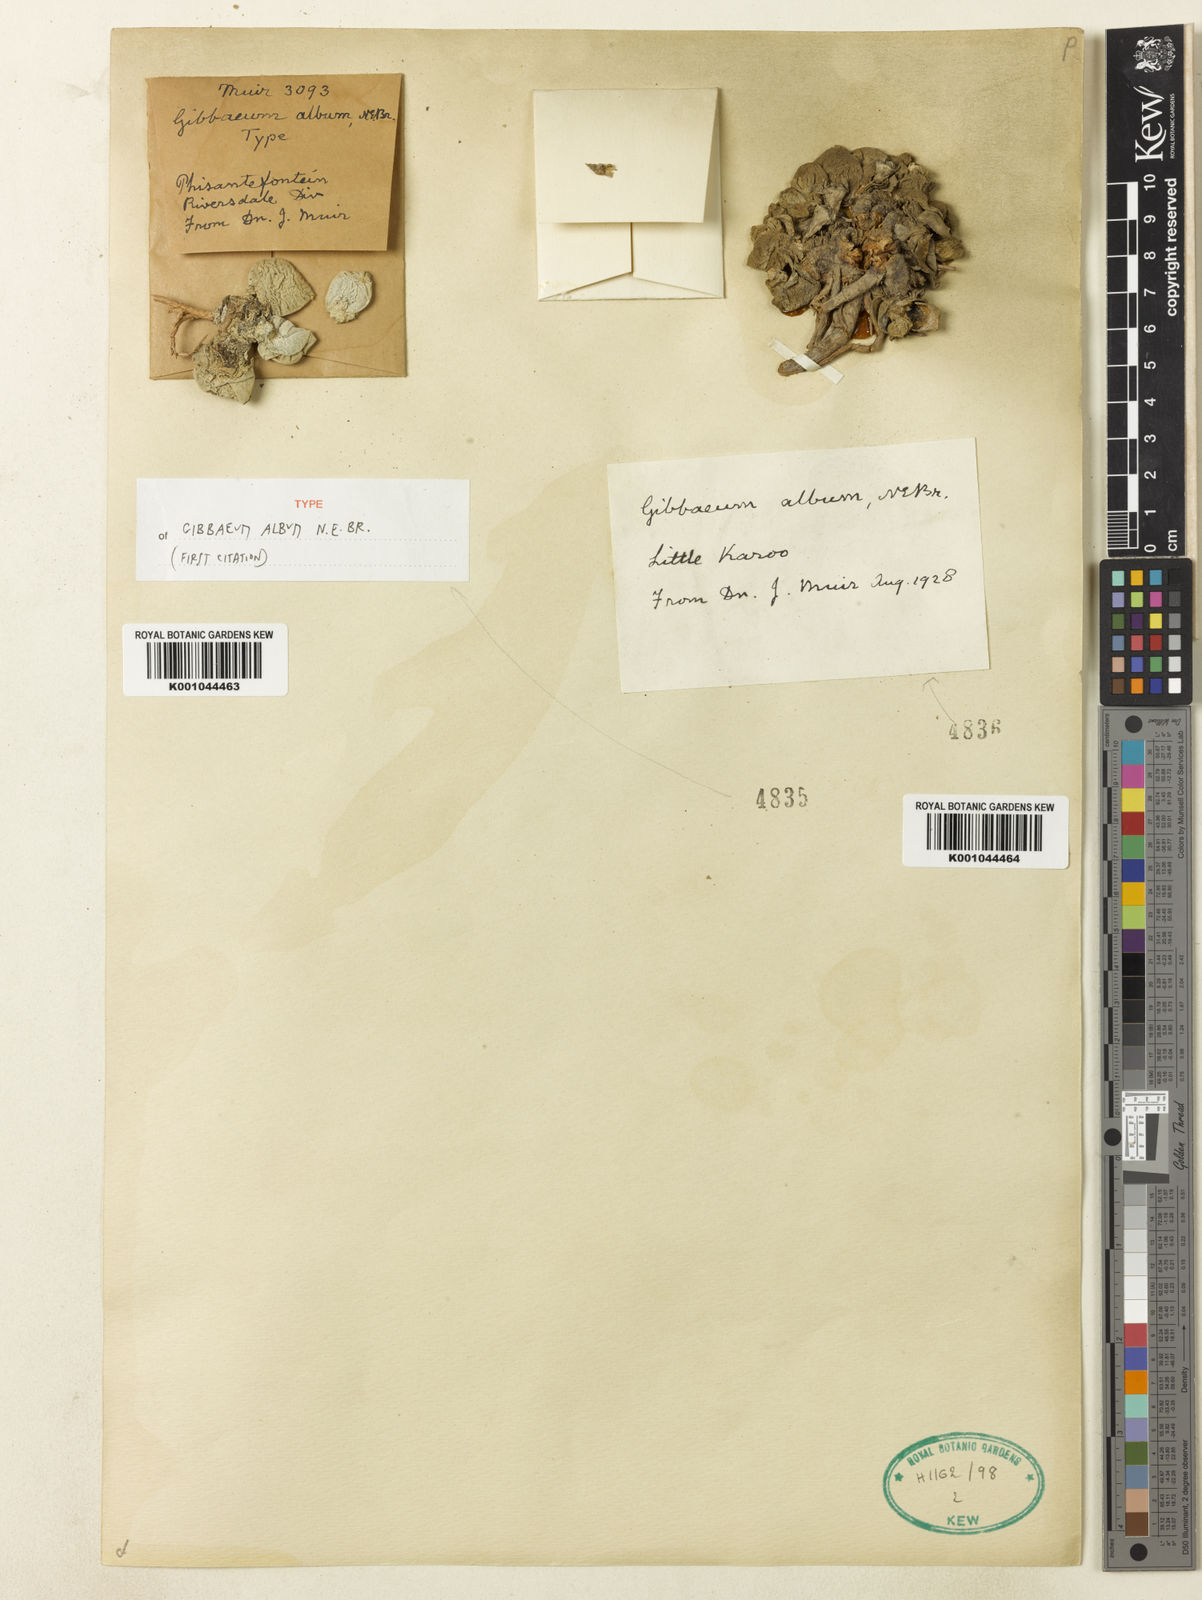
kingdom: Plantae
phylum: Tracheophyta
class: Magnoliopsida
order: Caryophyllales
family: Aizoaceae
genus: Gibbaeum
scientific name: Gibbaeum album
